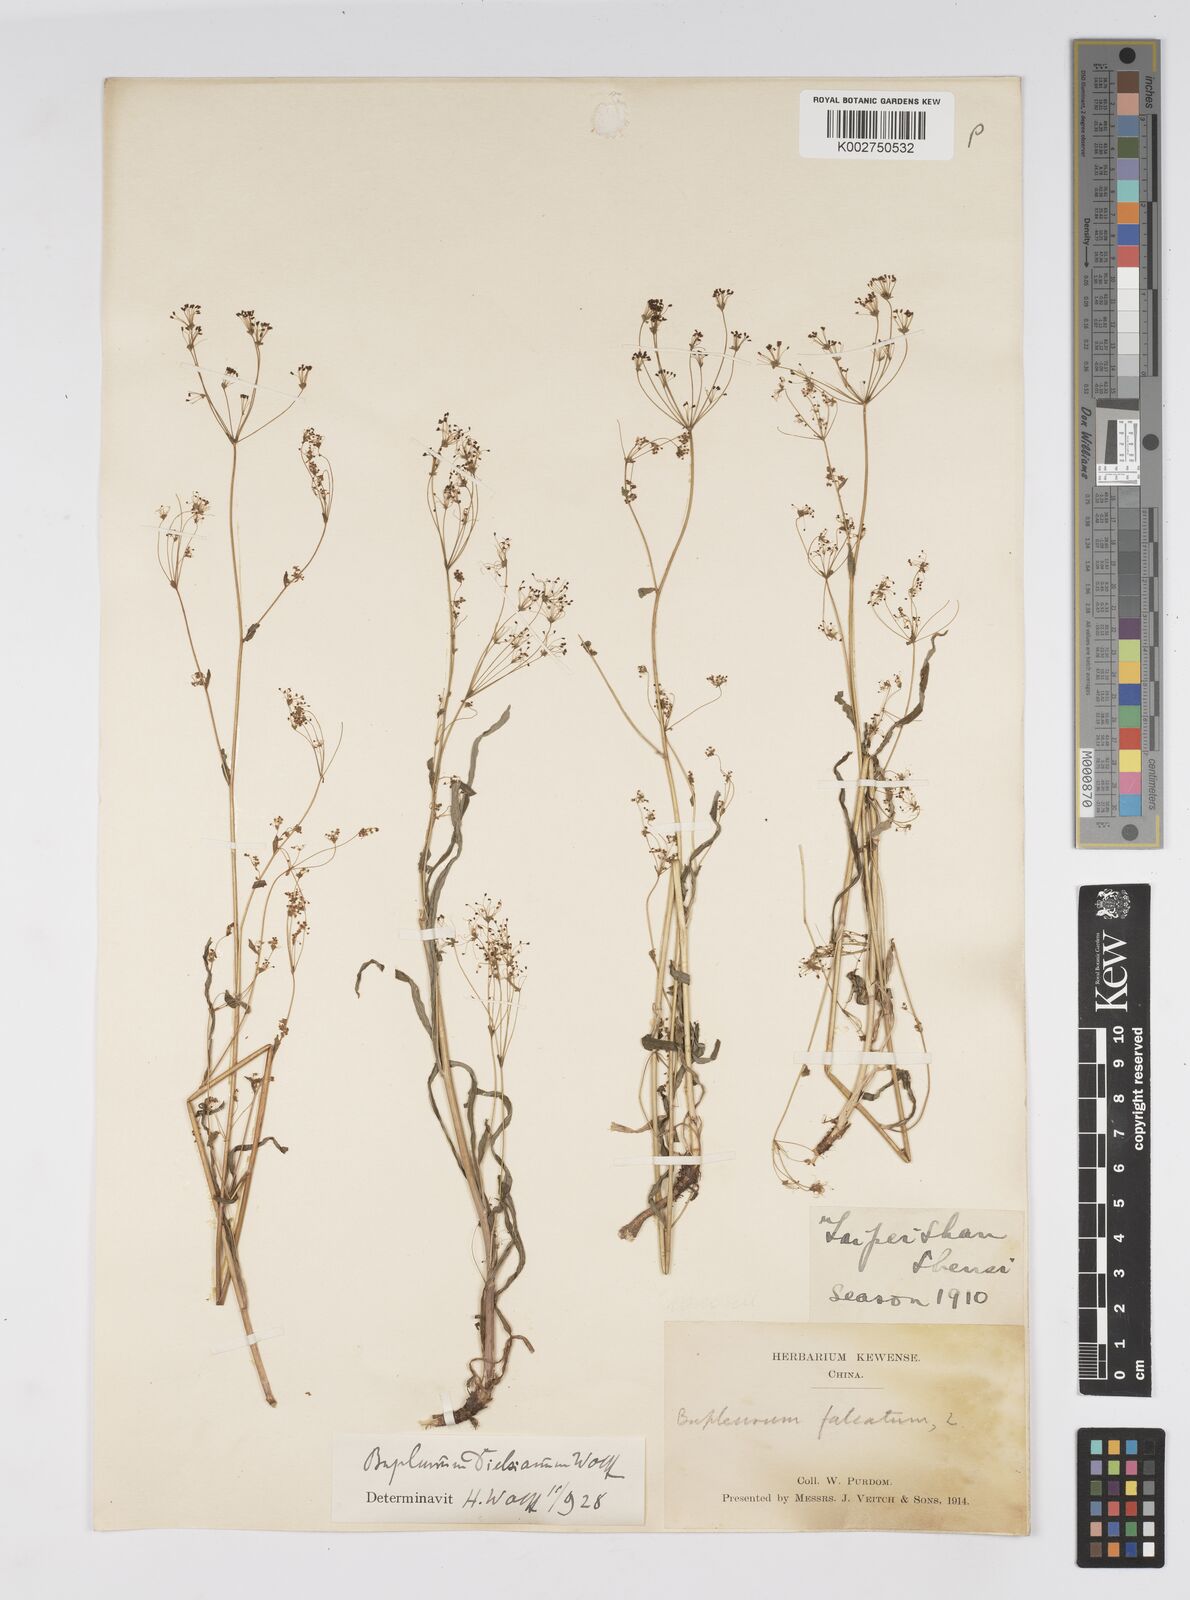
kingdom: Plantae
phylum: Tracheophyta
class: Magnoliopsida
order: Apiales
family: Apiaceae
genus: Bupleurum
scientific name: Bupleurum dielsianum
